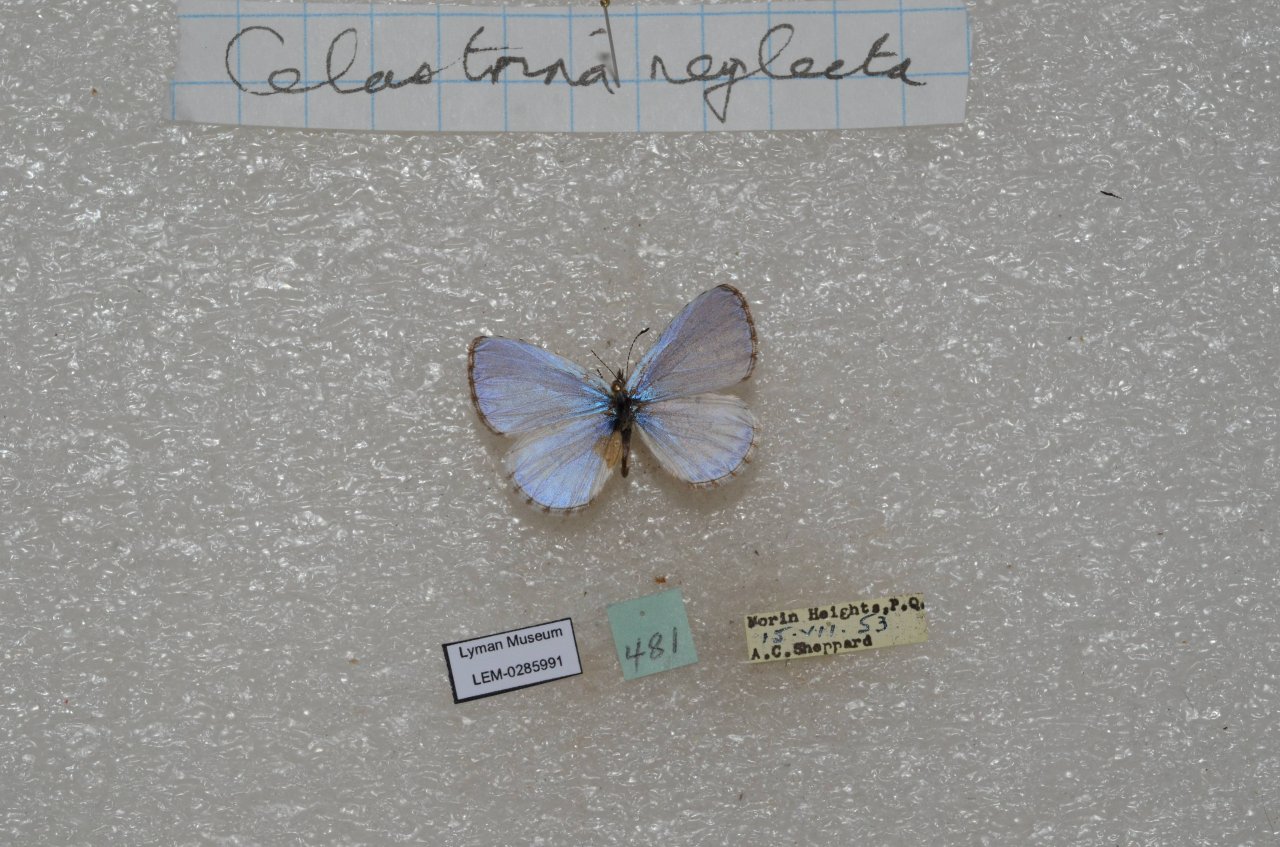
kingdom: Animalia
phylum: Arthropoda
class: Insecta
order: Lepidoptera
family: Lycaenidae
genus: Celastrina
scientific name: Celastrina lucia
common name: Northern Spring Azure
